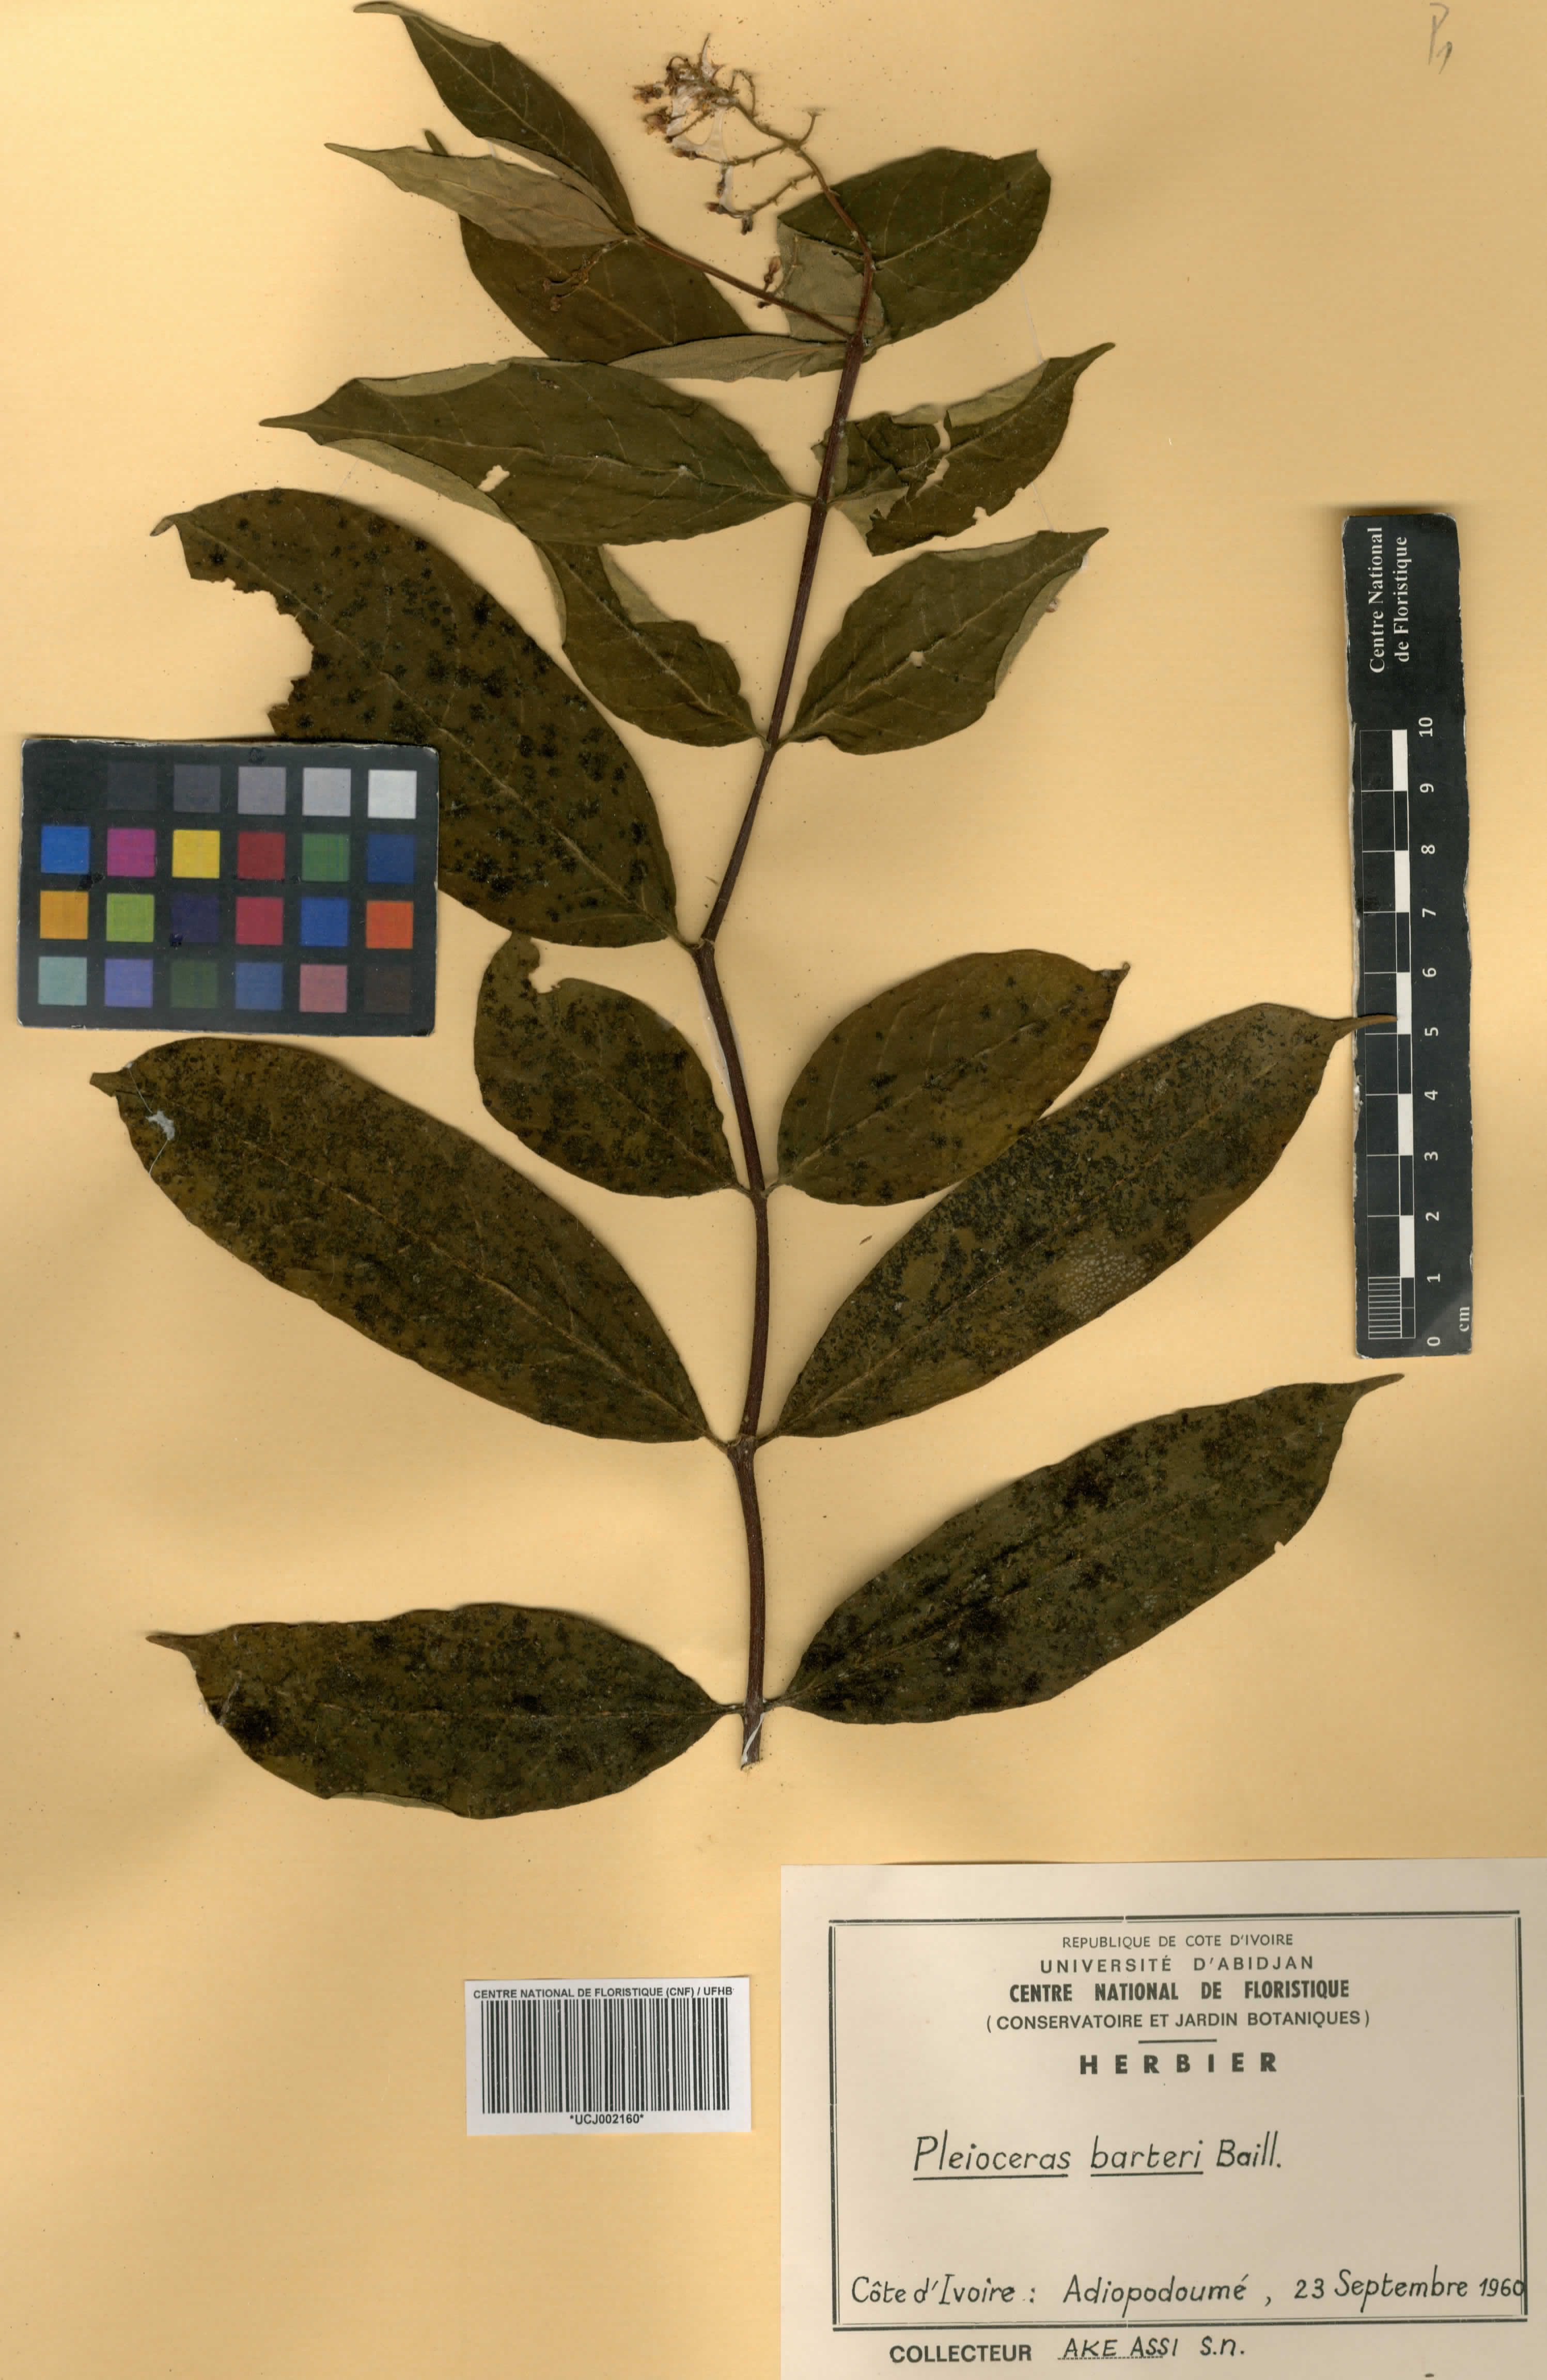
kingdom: Plantae
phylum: Tracheophyta
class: Magnoliopsida
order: Gentianales
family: Apocynaceae
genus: Pleioceras
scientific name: Pleioceras barteri
